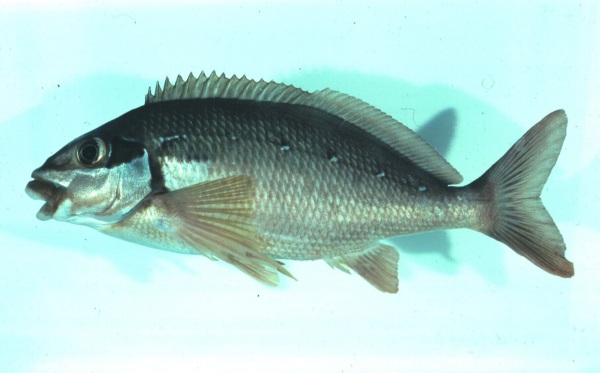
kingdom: Animalia
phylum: Chordata
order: Perciformes
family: Cheilodactylidae
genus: Chirodactylus
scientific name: Chirodactylus brachydactylus
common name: Butterfish
